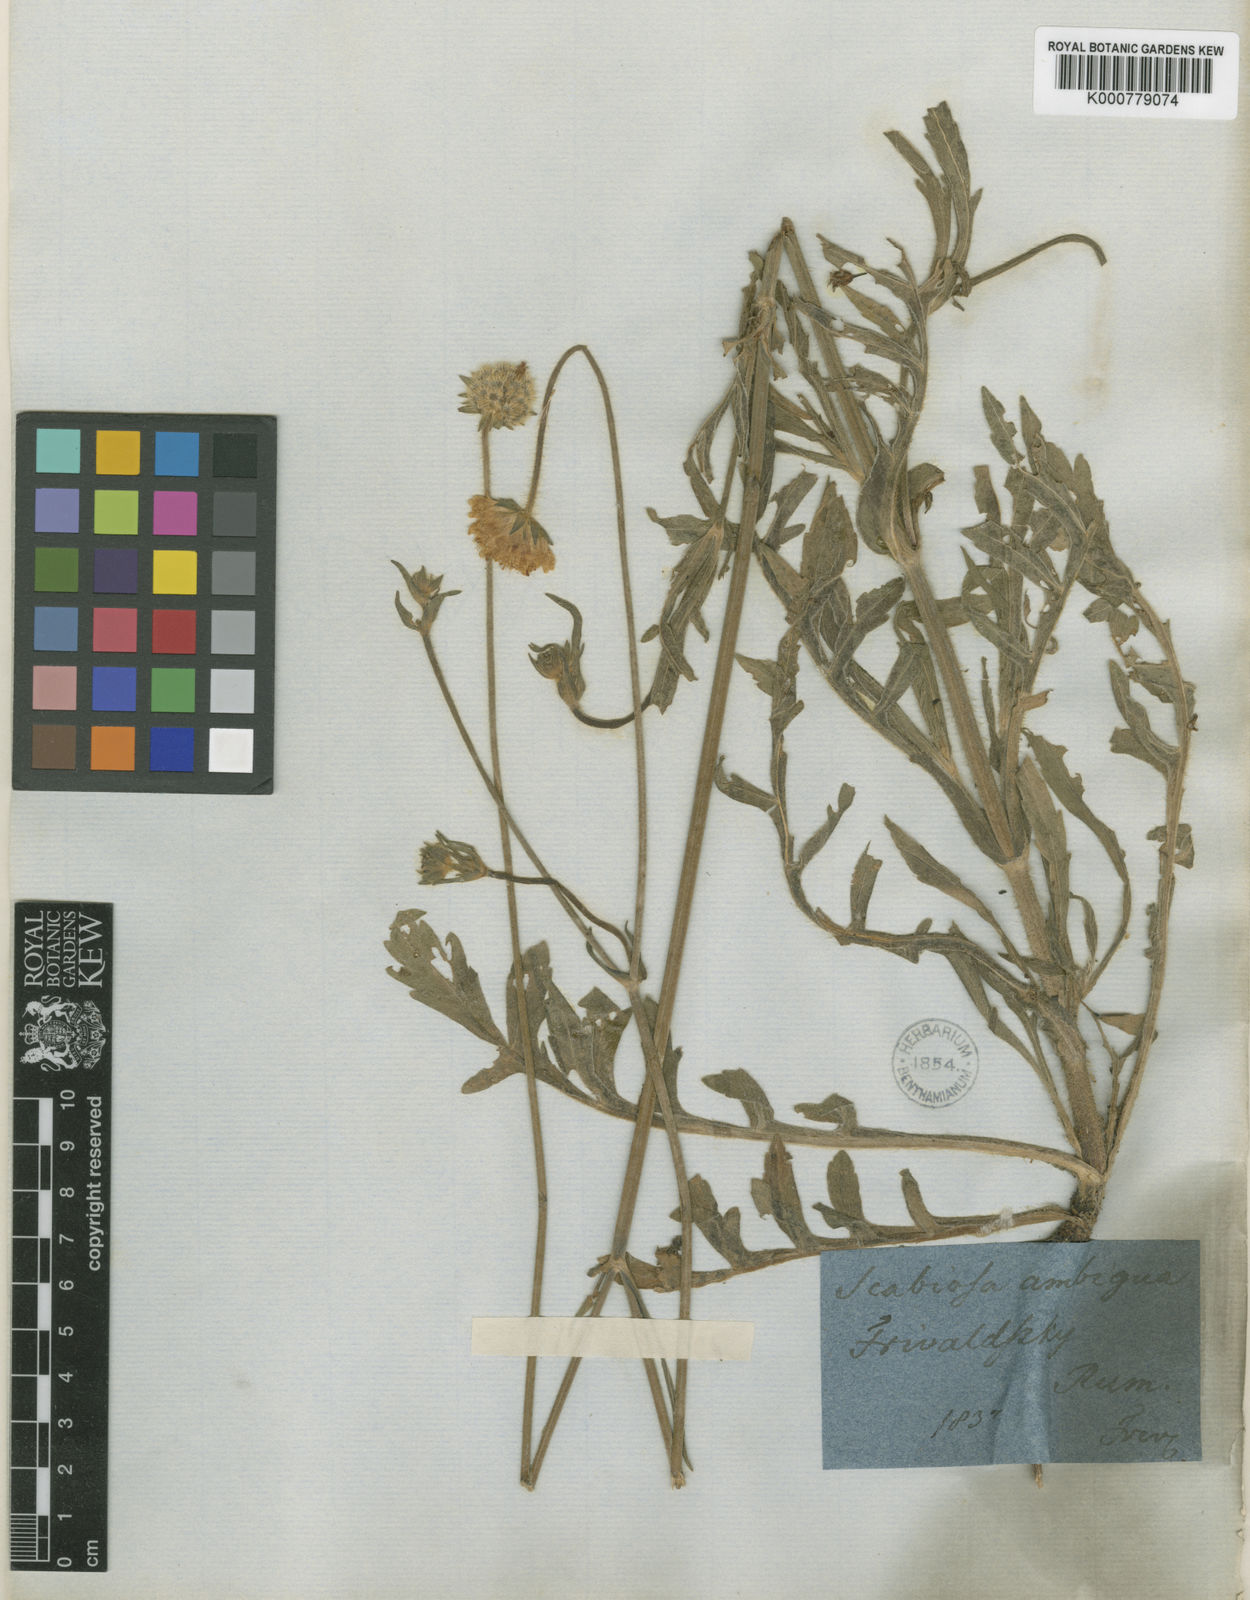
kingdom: Plantae
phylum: Tracheophyta
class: Magnoliopsida
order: Dipsacales
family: Caprifoliaceae
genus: Knautia
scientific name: Knautia ambigua
